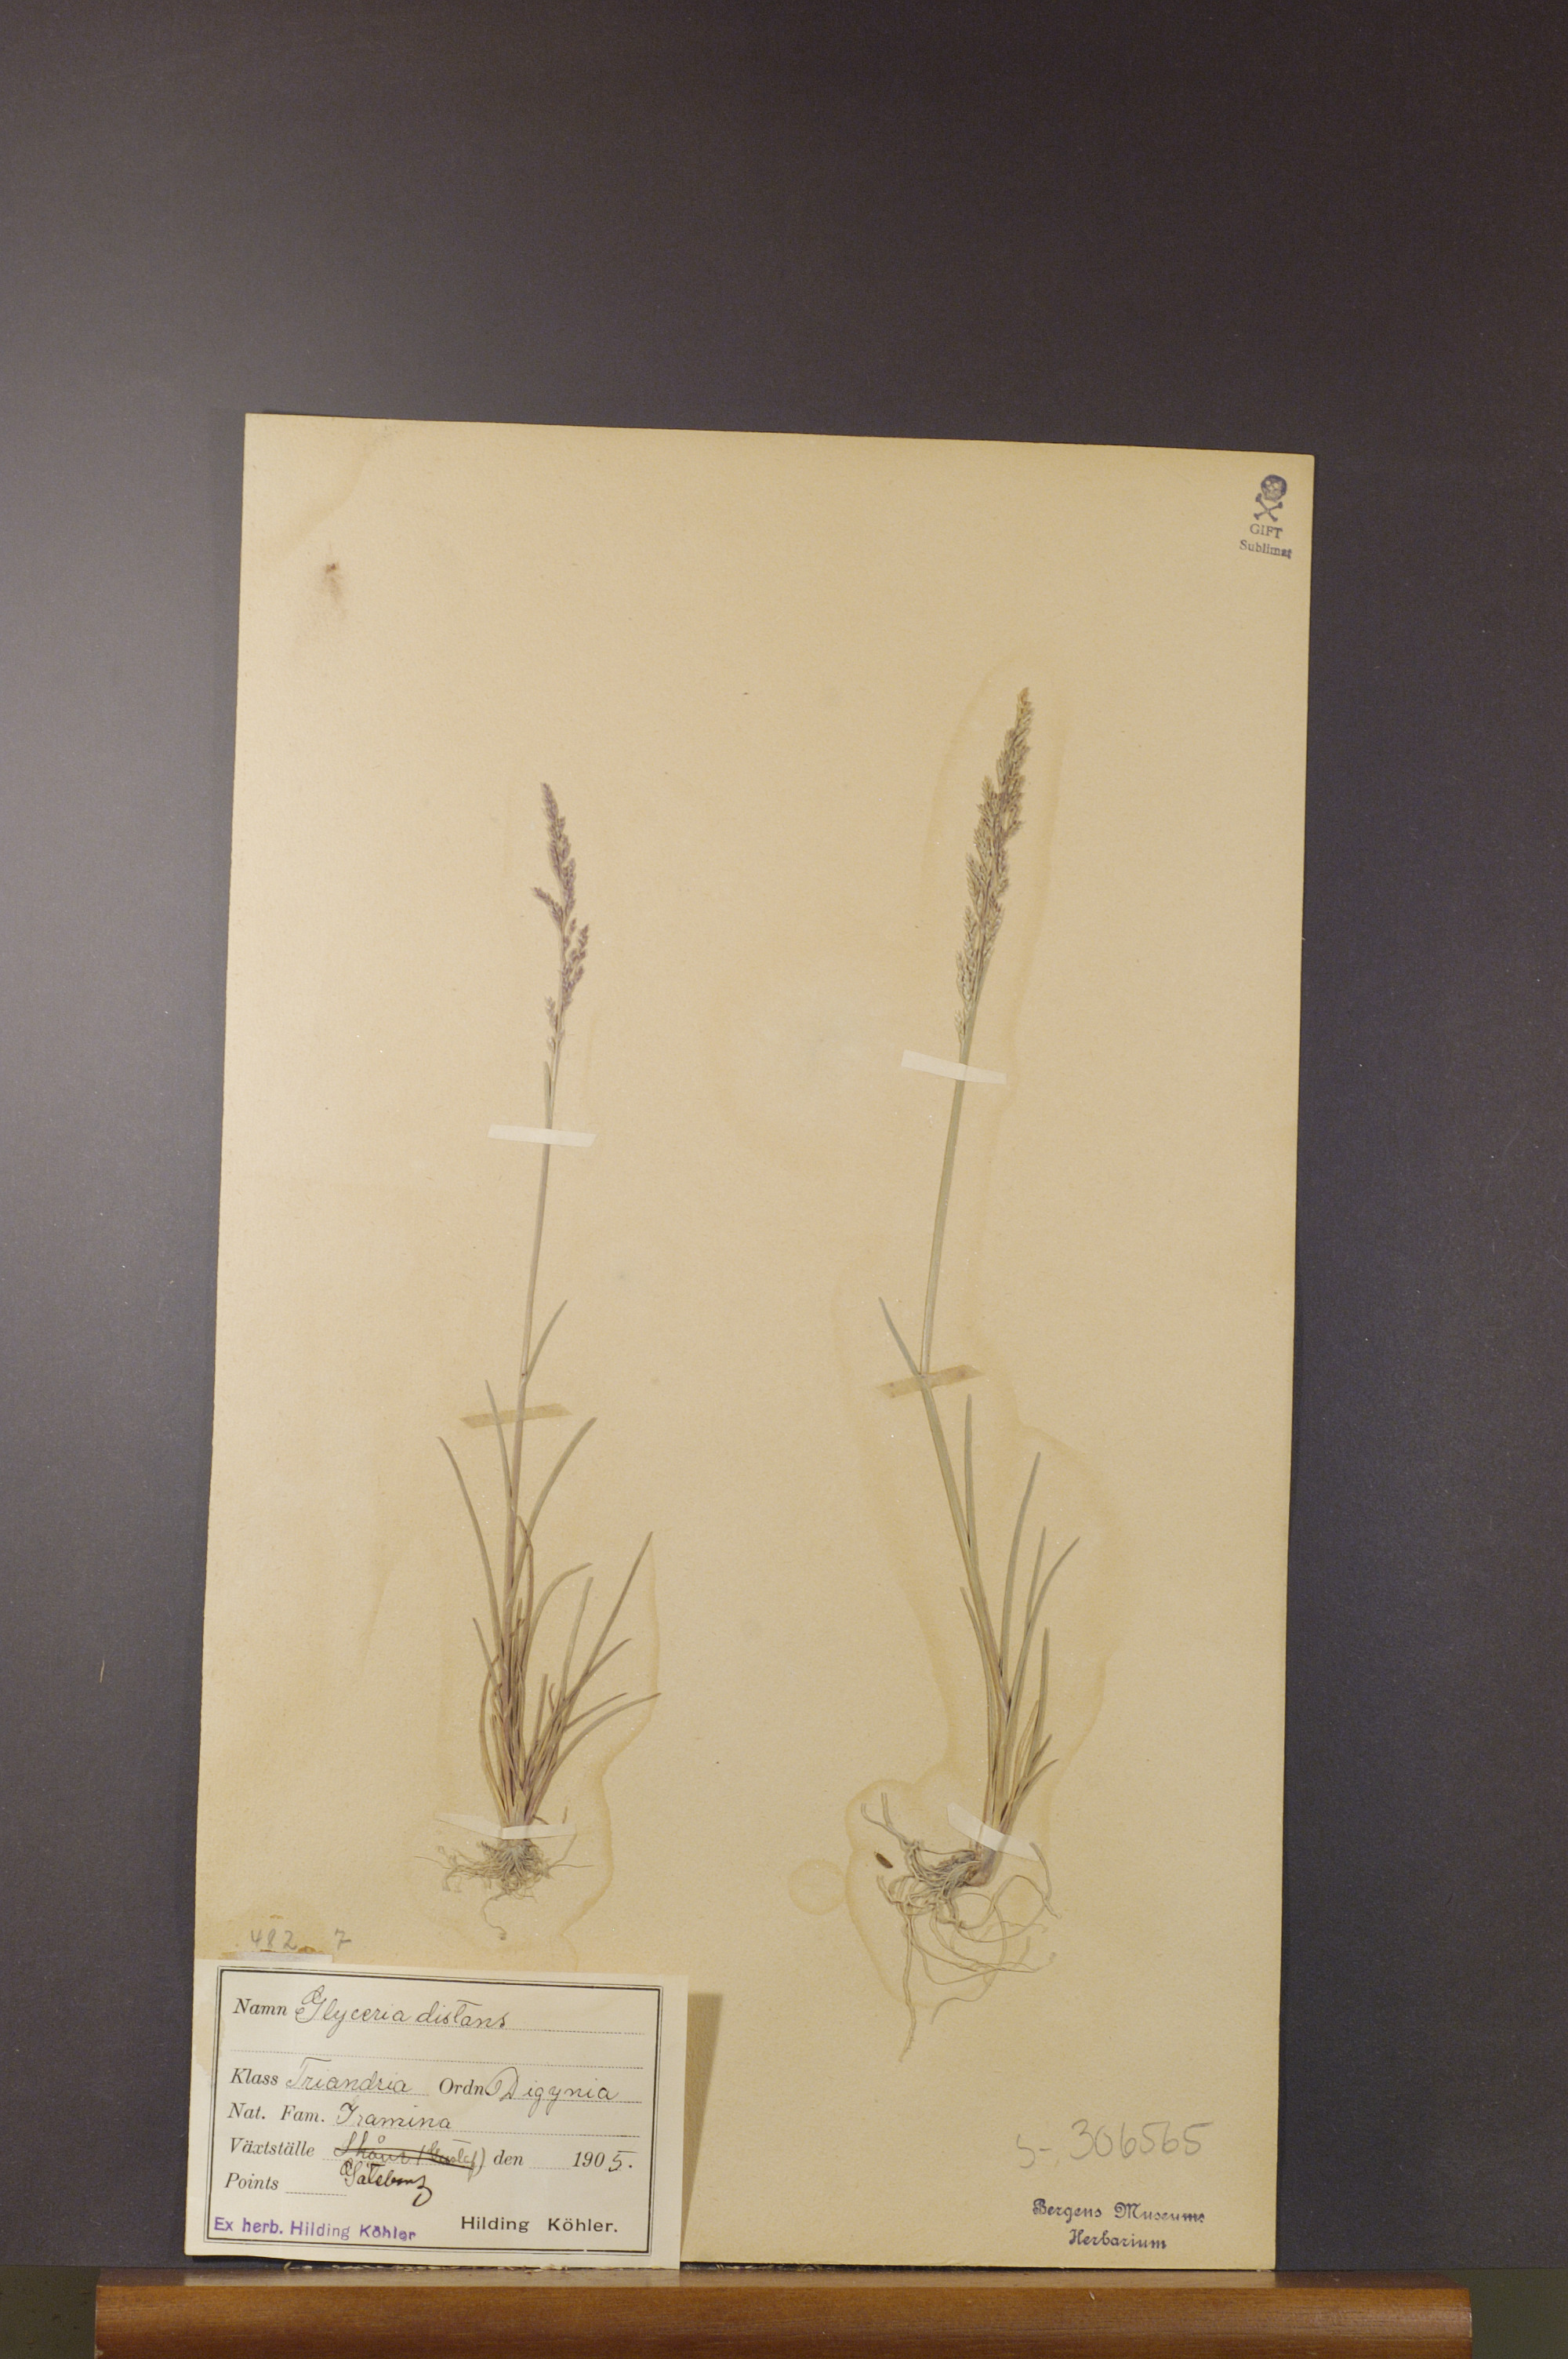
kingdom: Plantae
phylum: Tracheophyta
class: Liliopsida
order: Poales
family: Poaceae
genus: Puccinellia
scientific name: Puccinellia distans
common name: Weeping alkaligrass
